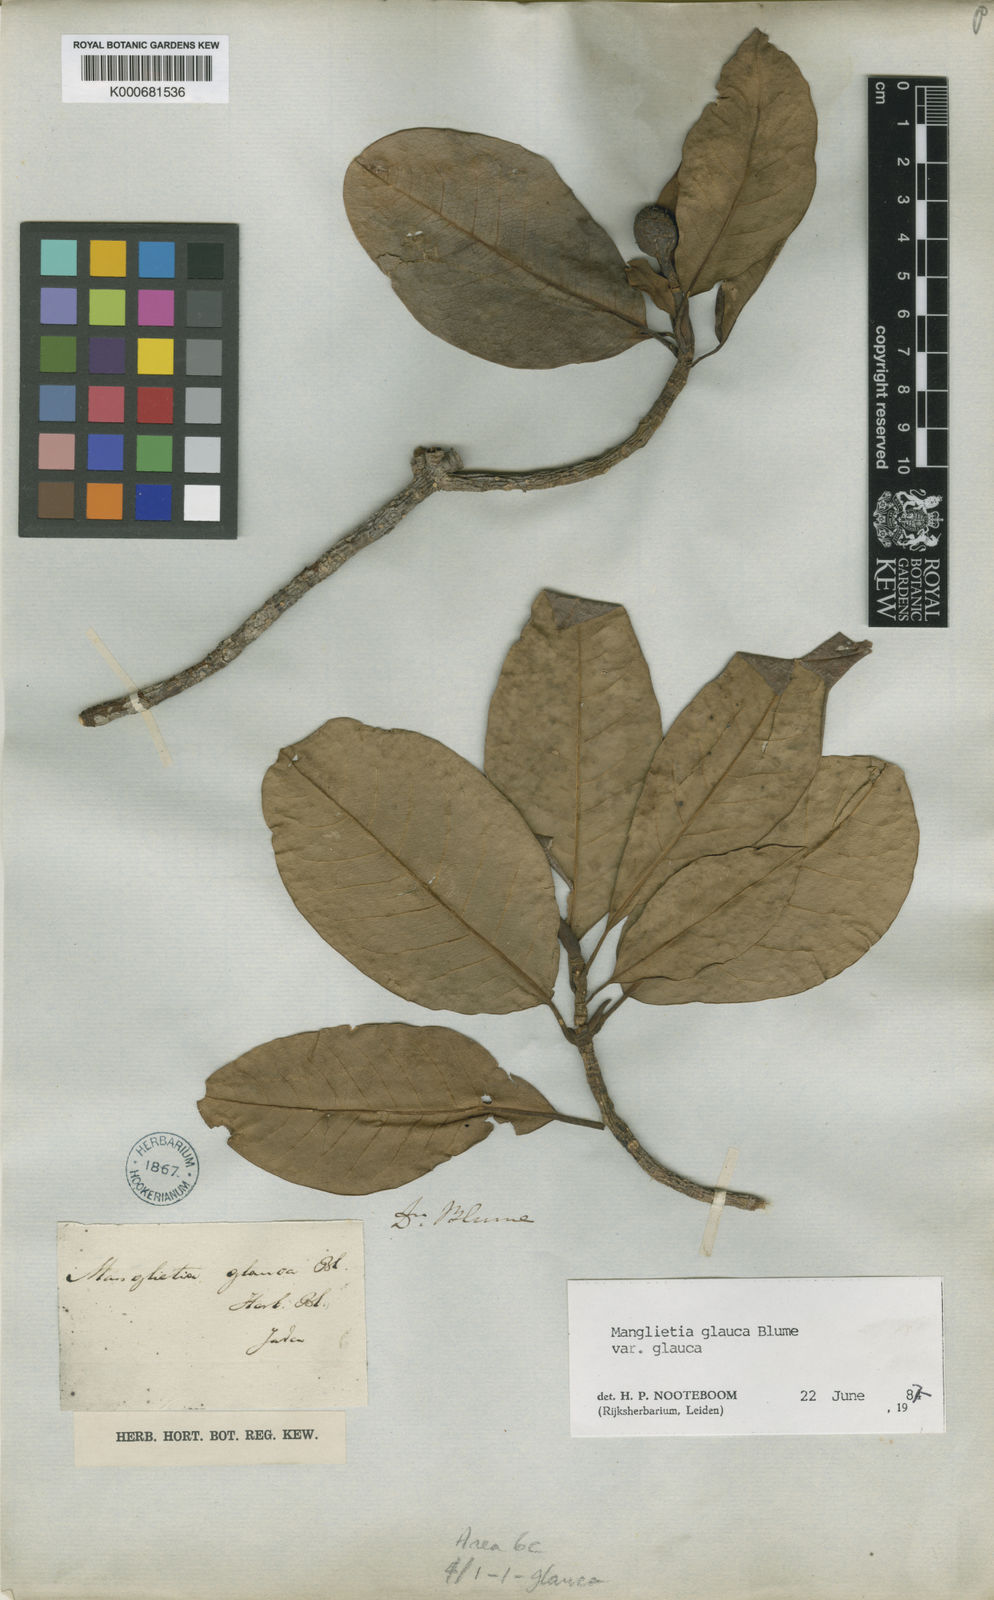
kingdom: Plantae
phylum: Tracheophyta
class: Magnoliopsida
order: Magnoliales
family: Magnoliaceae
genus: Magnolia
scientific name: Magnolia sumatrana
